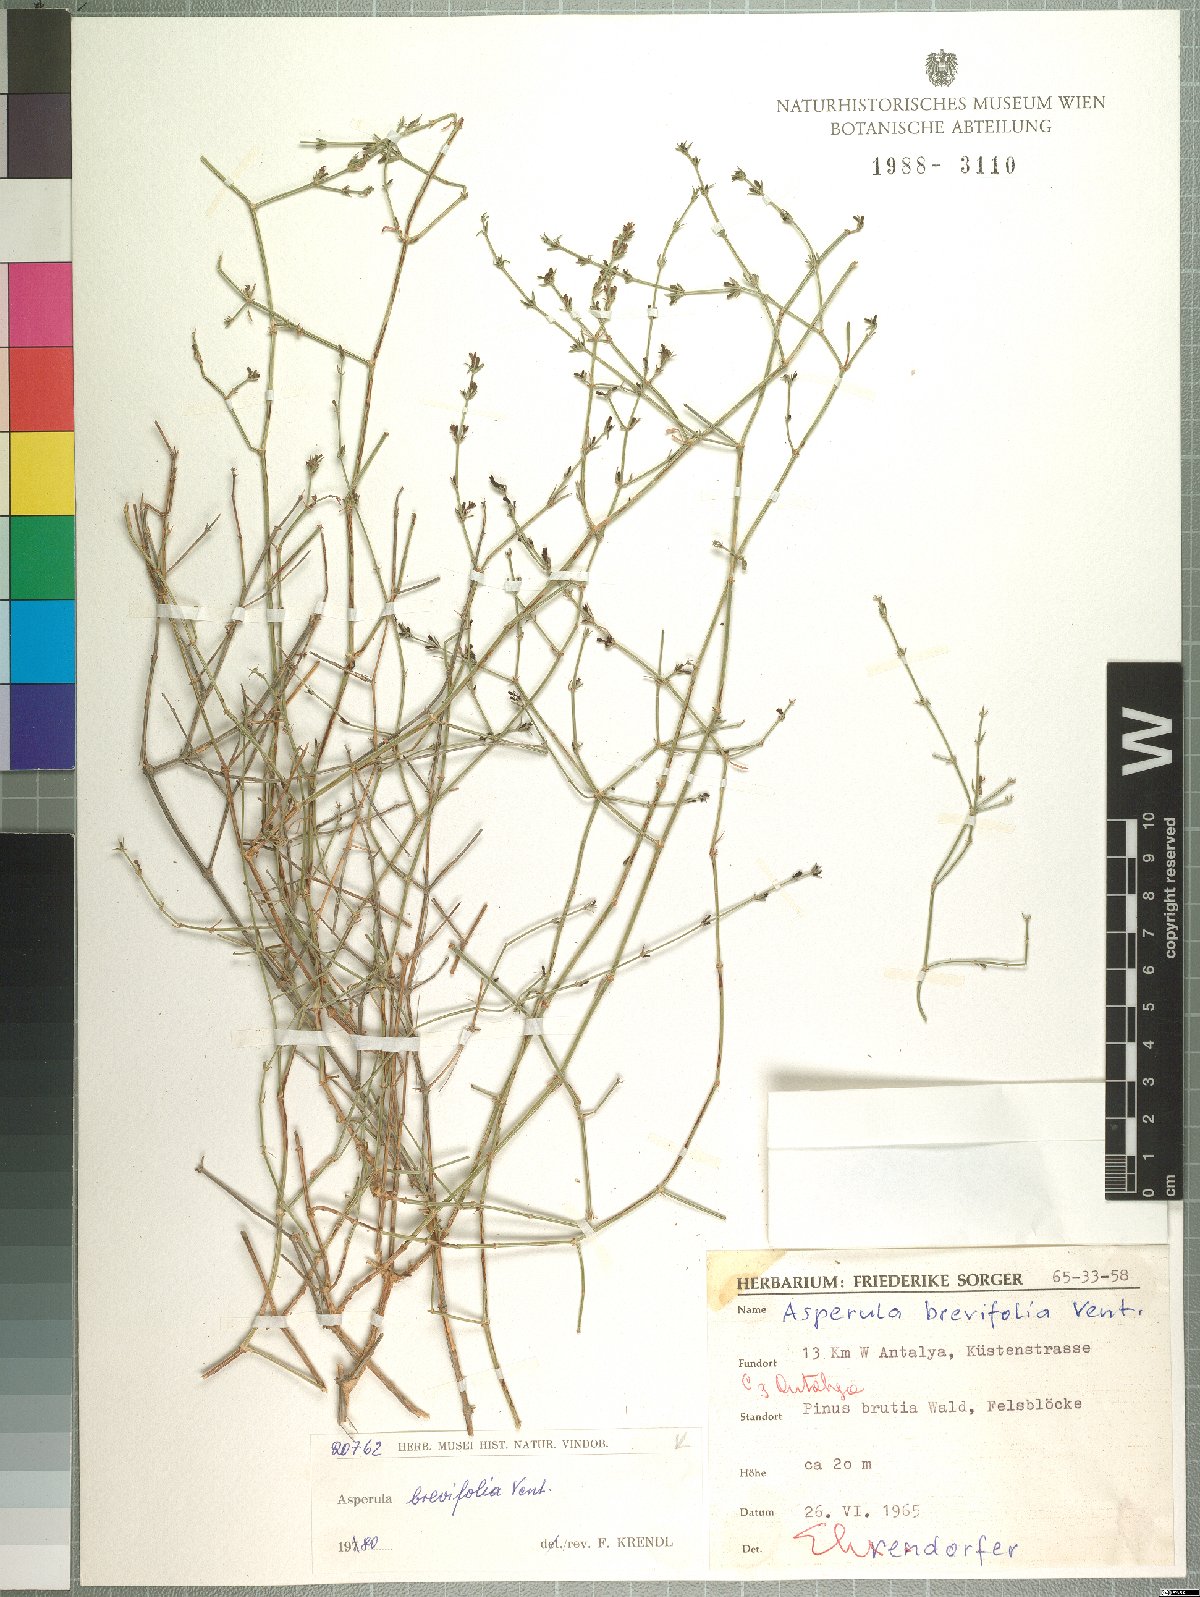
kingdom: Plantae
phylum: Tracheophyta
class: Magnoliopsida
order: Gentianales
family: Rubiaceae
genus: Thliphthisa
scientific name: Thliphthisa brevifolia
